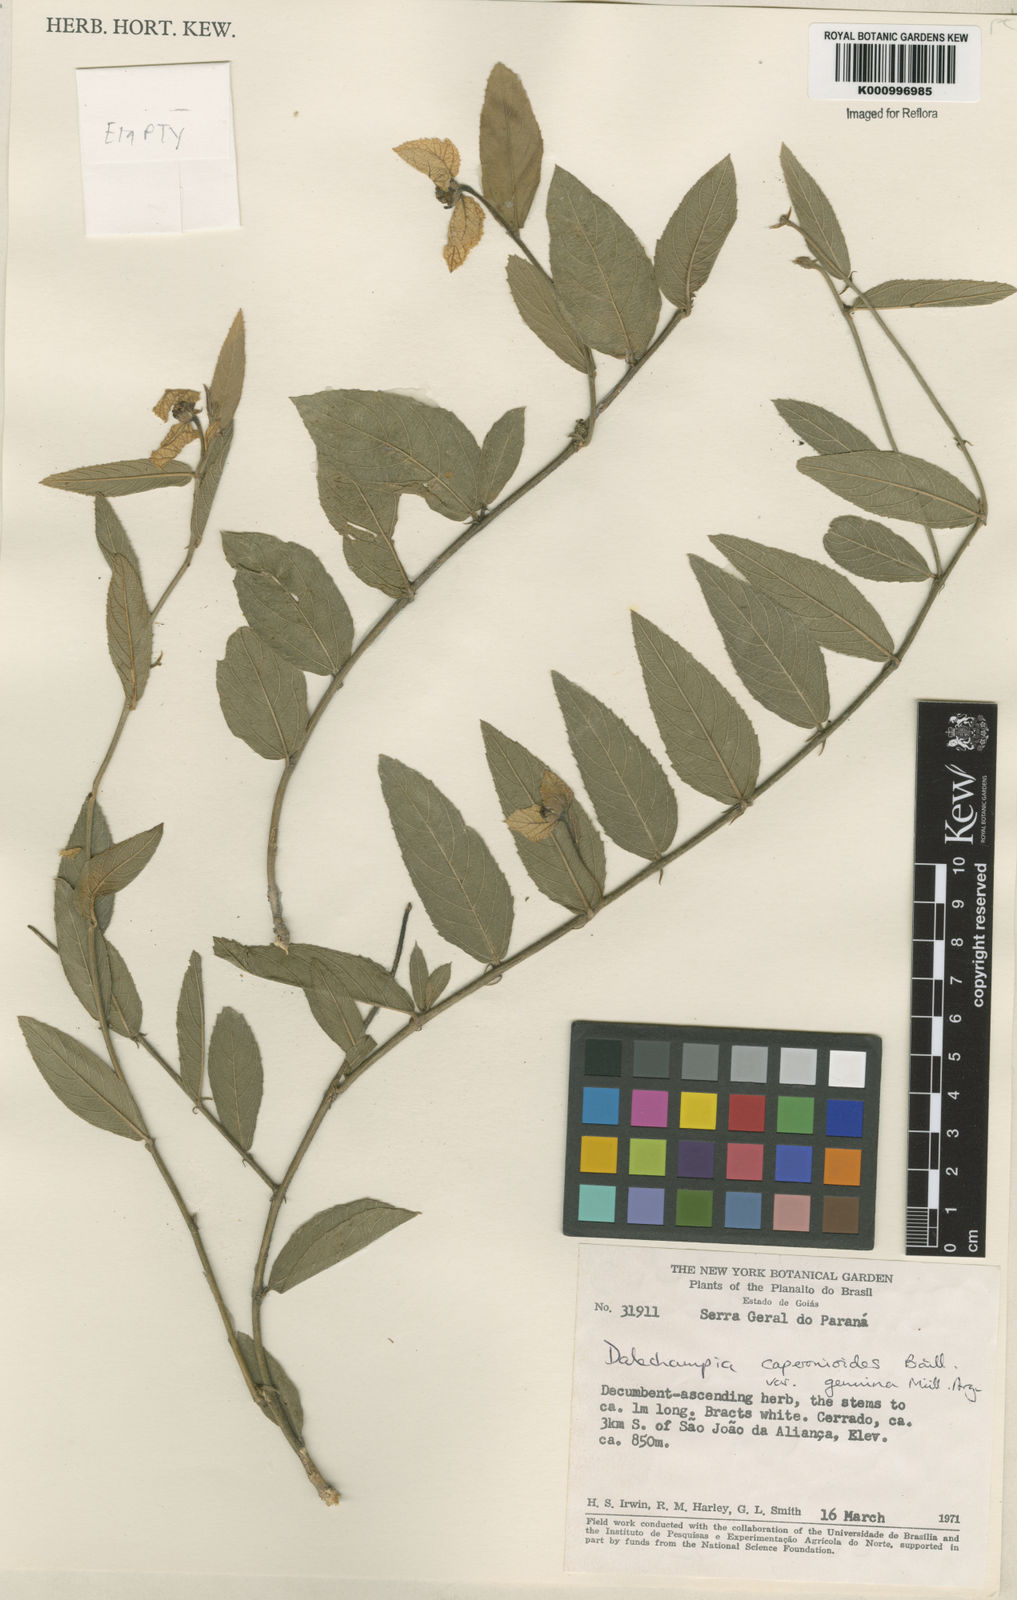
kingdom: Plantae
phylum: Tracheophyta
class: Magnoliopsida
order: Malpighiales
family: Euphorbiaceae
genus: Dalechampia
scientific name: Dalechampia caperonioides
